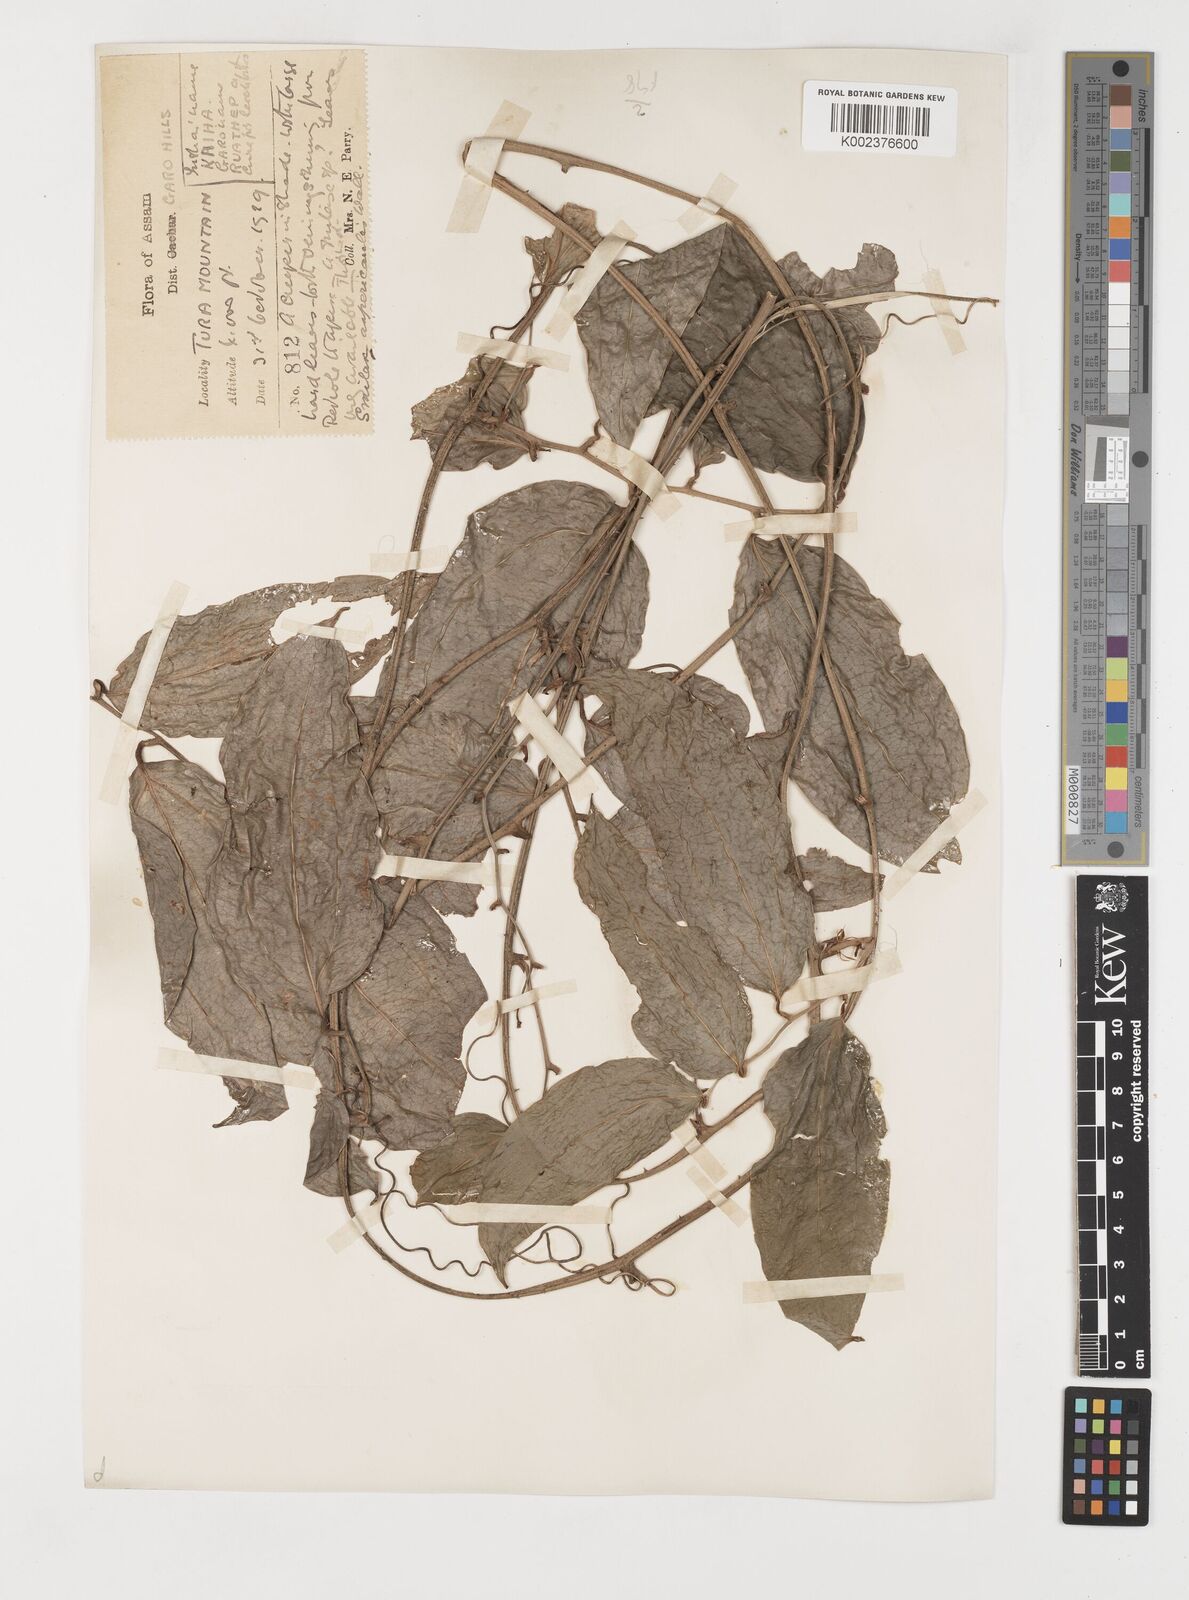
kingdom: Plantae
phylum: Tracheophyta
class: Liliopsida
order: Liliales
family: Smilacaceae
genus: Smilax
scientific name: Smilax aspericaulis
